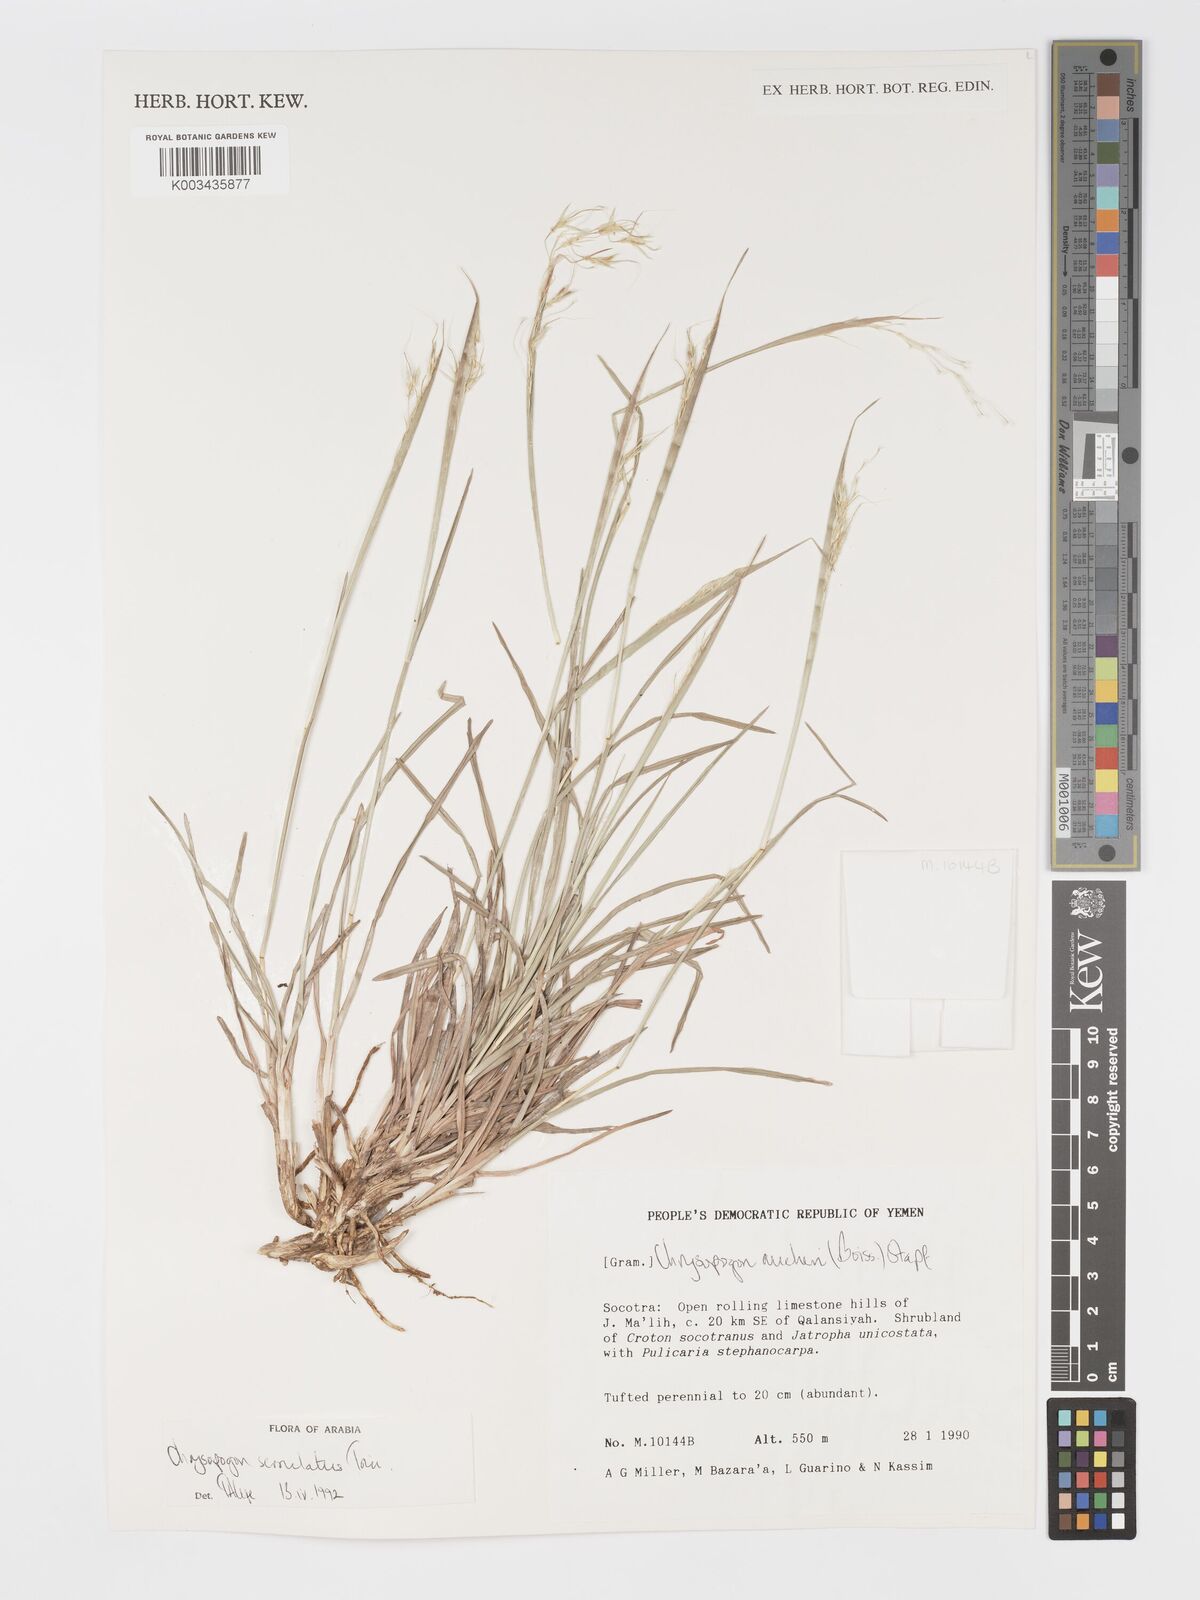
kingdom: Plantae
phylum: Tracheophyta
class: Liliopsida
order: Poales
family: Poaceae
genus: Chrysopogon
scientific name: Chrysopogon serrulatus
